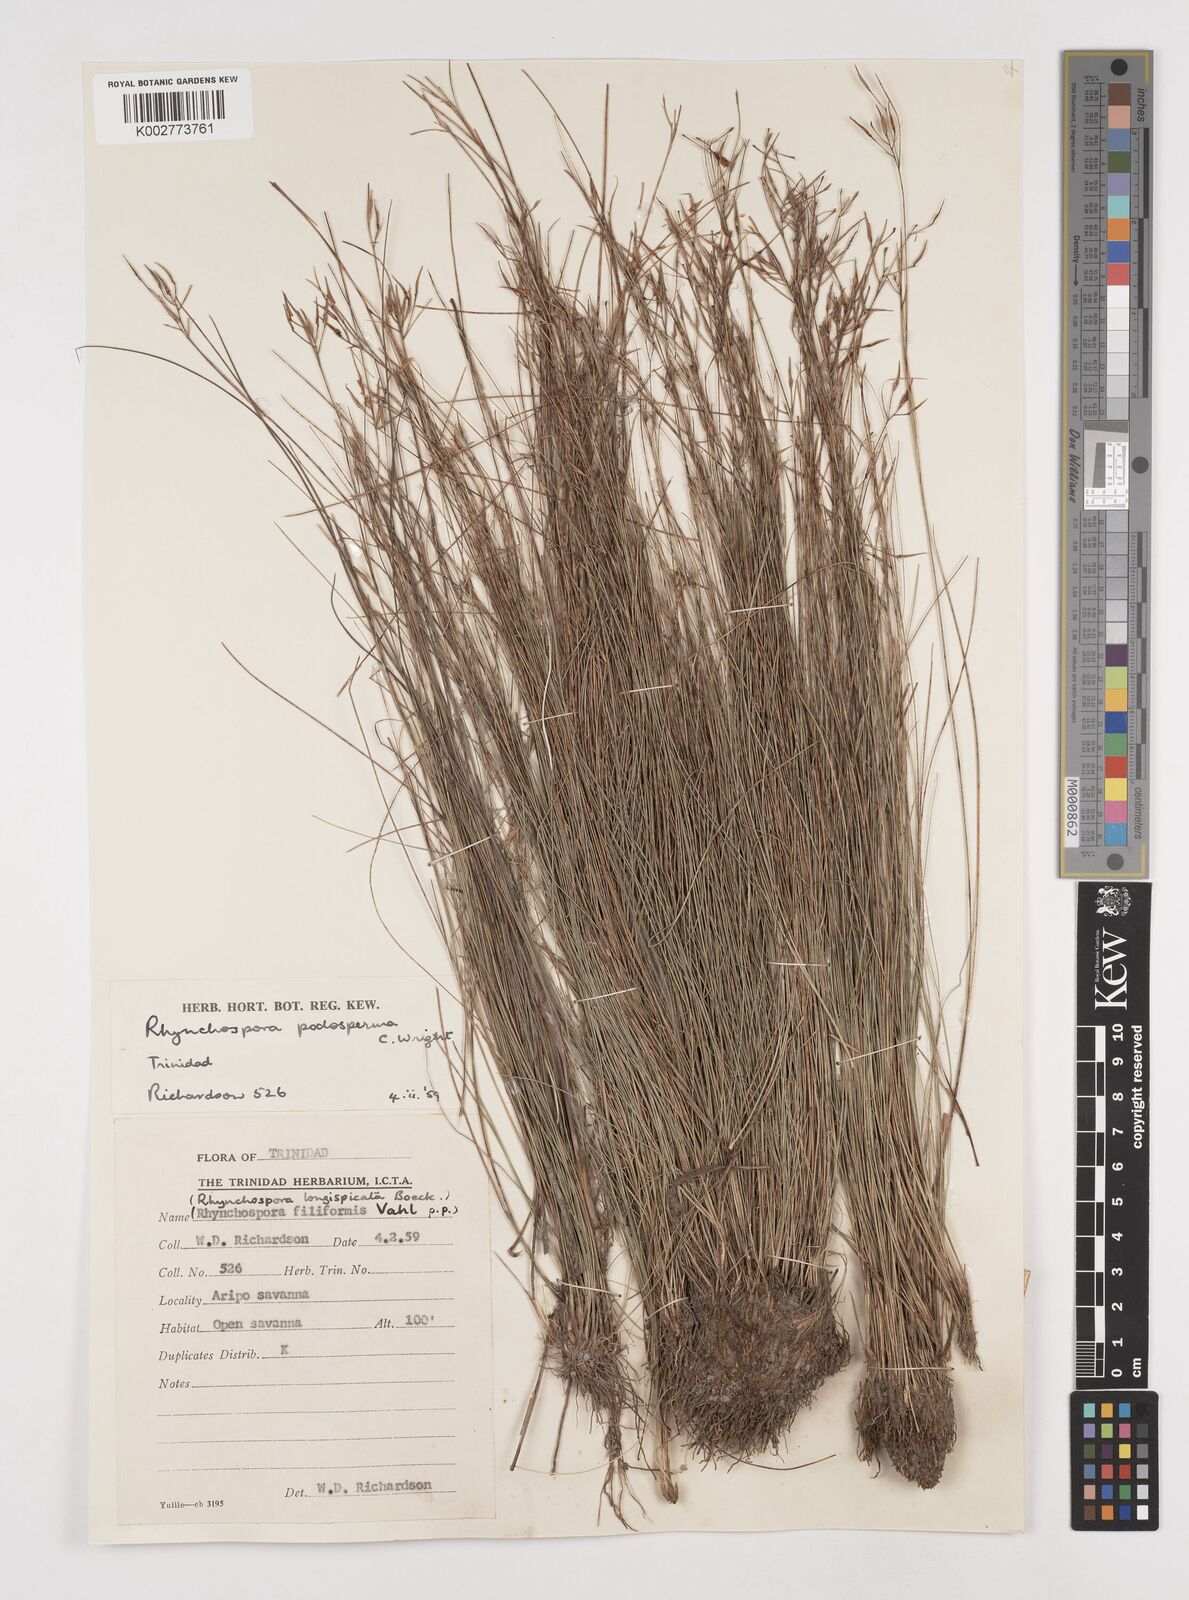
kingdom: Plantae
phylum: Tracheophyta
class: Liliopsida
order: Poales
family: Cyperaceae
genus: Rhynchospora
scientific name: Rhynchospora filiformis
